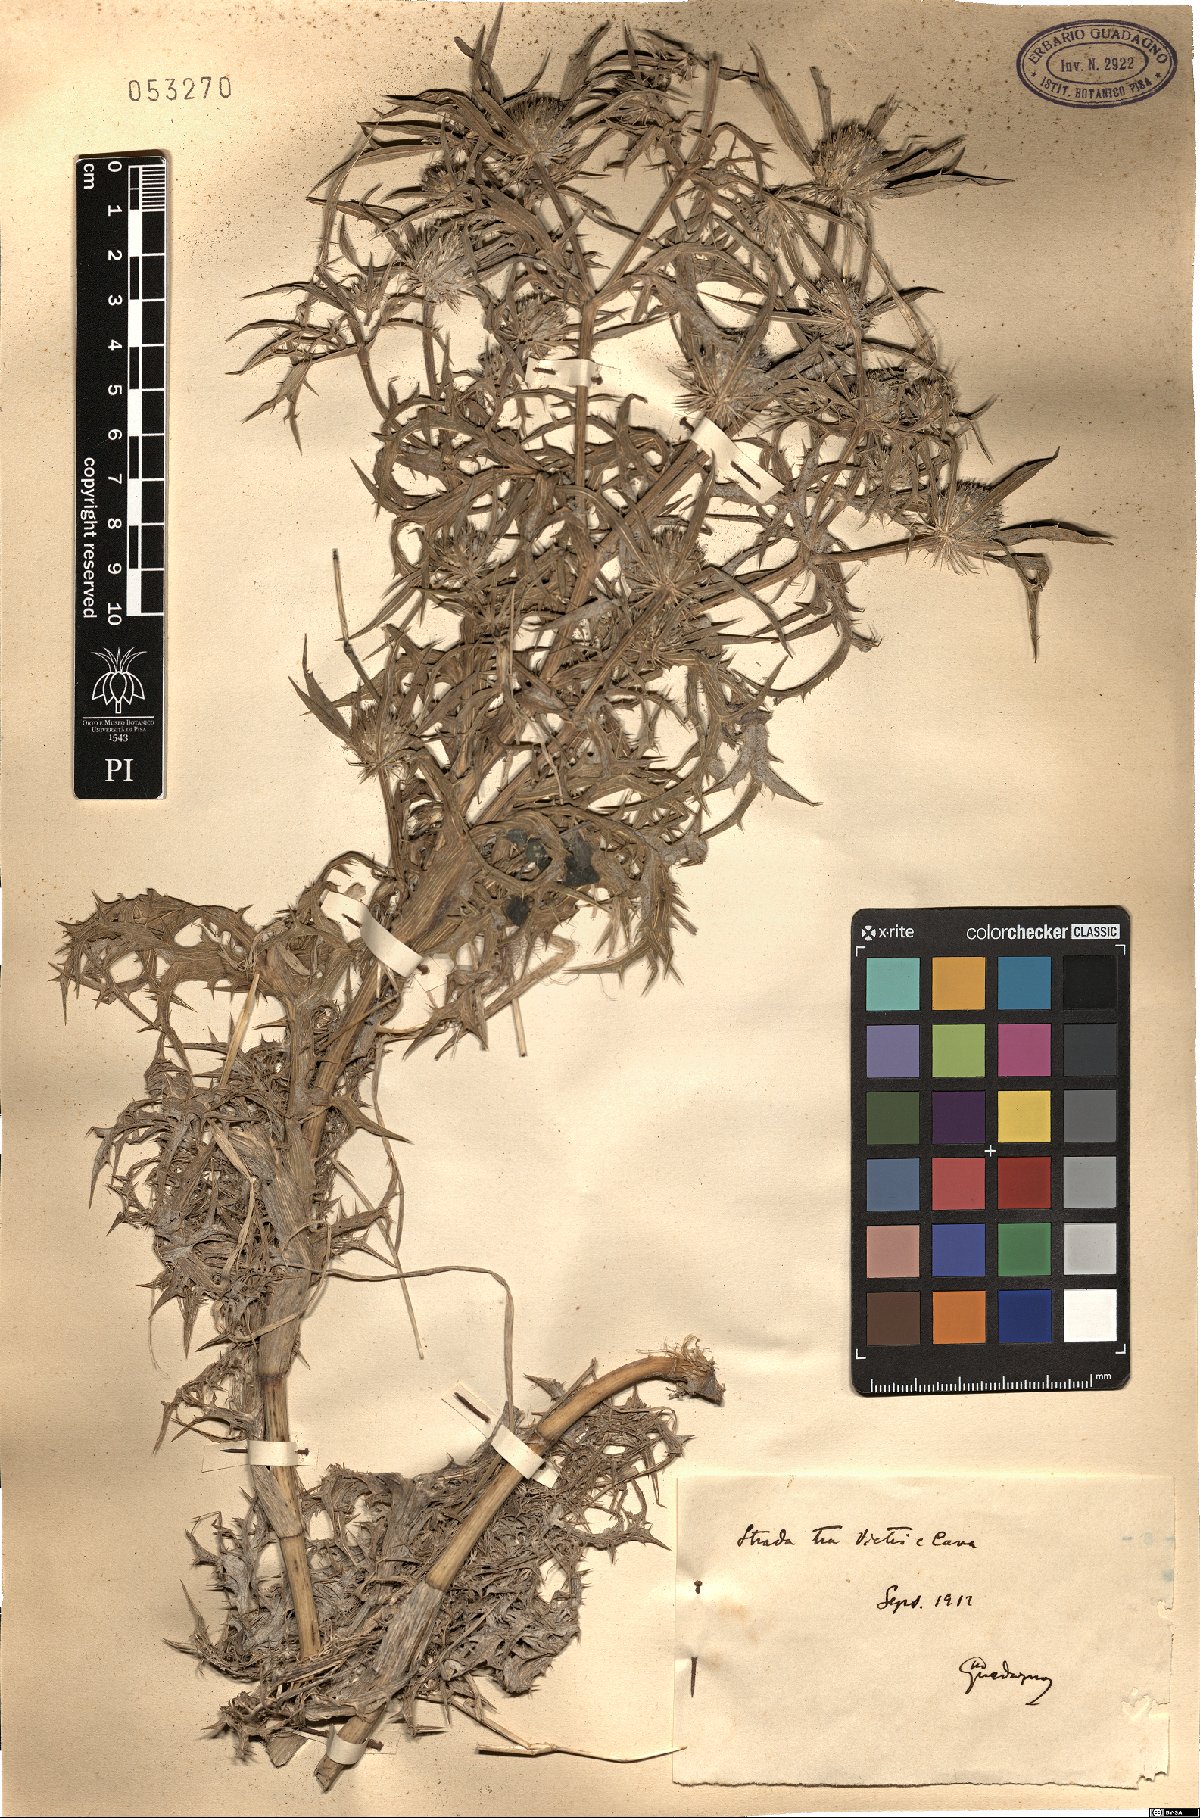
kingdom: Plantae
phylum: Tracheophyta
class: Magnoliopsida
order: Apiales
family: Apiaceae
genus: Eryngium
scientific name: Eryngium
